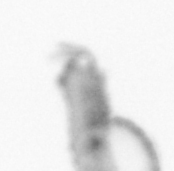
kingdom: Animalia
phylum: Annelida
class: Polychaeta
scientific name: Polychaeta
